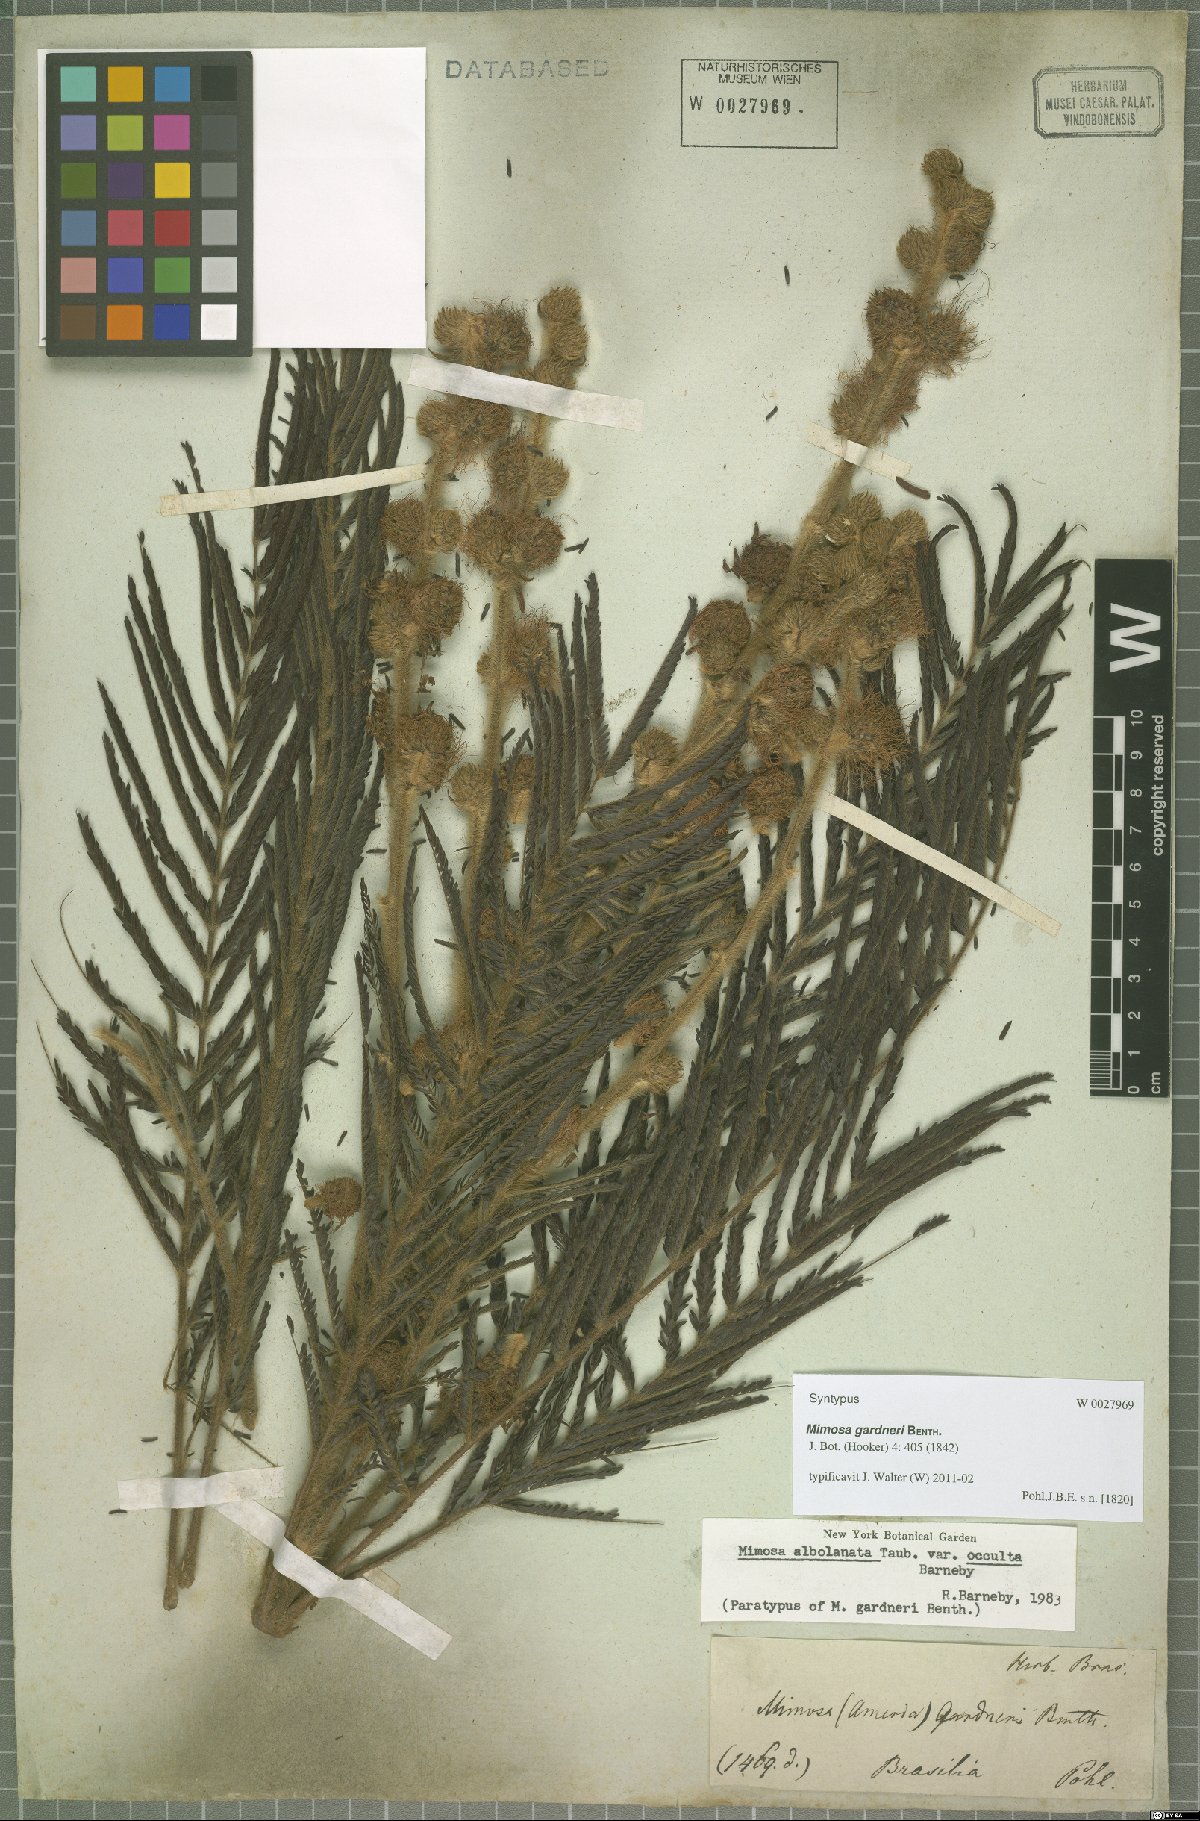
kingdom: Plantae
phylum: Tracheophyta
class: Magnoliopsida
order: Fabales
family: Fabaceae
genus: Mimosa
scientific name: Mimosa albolanata
